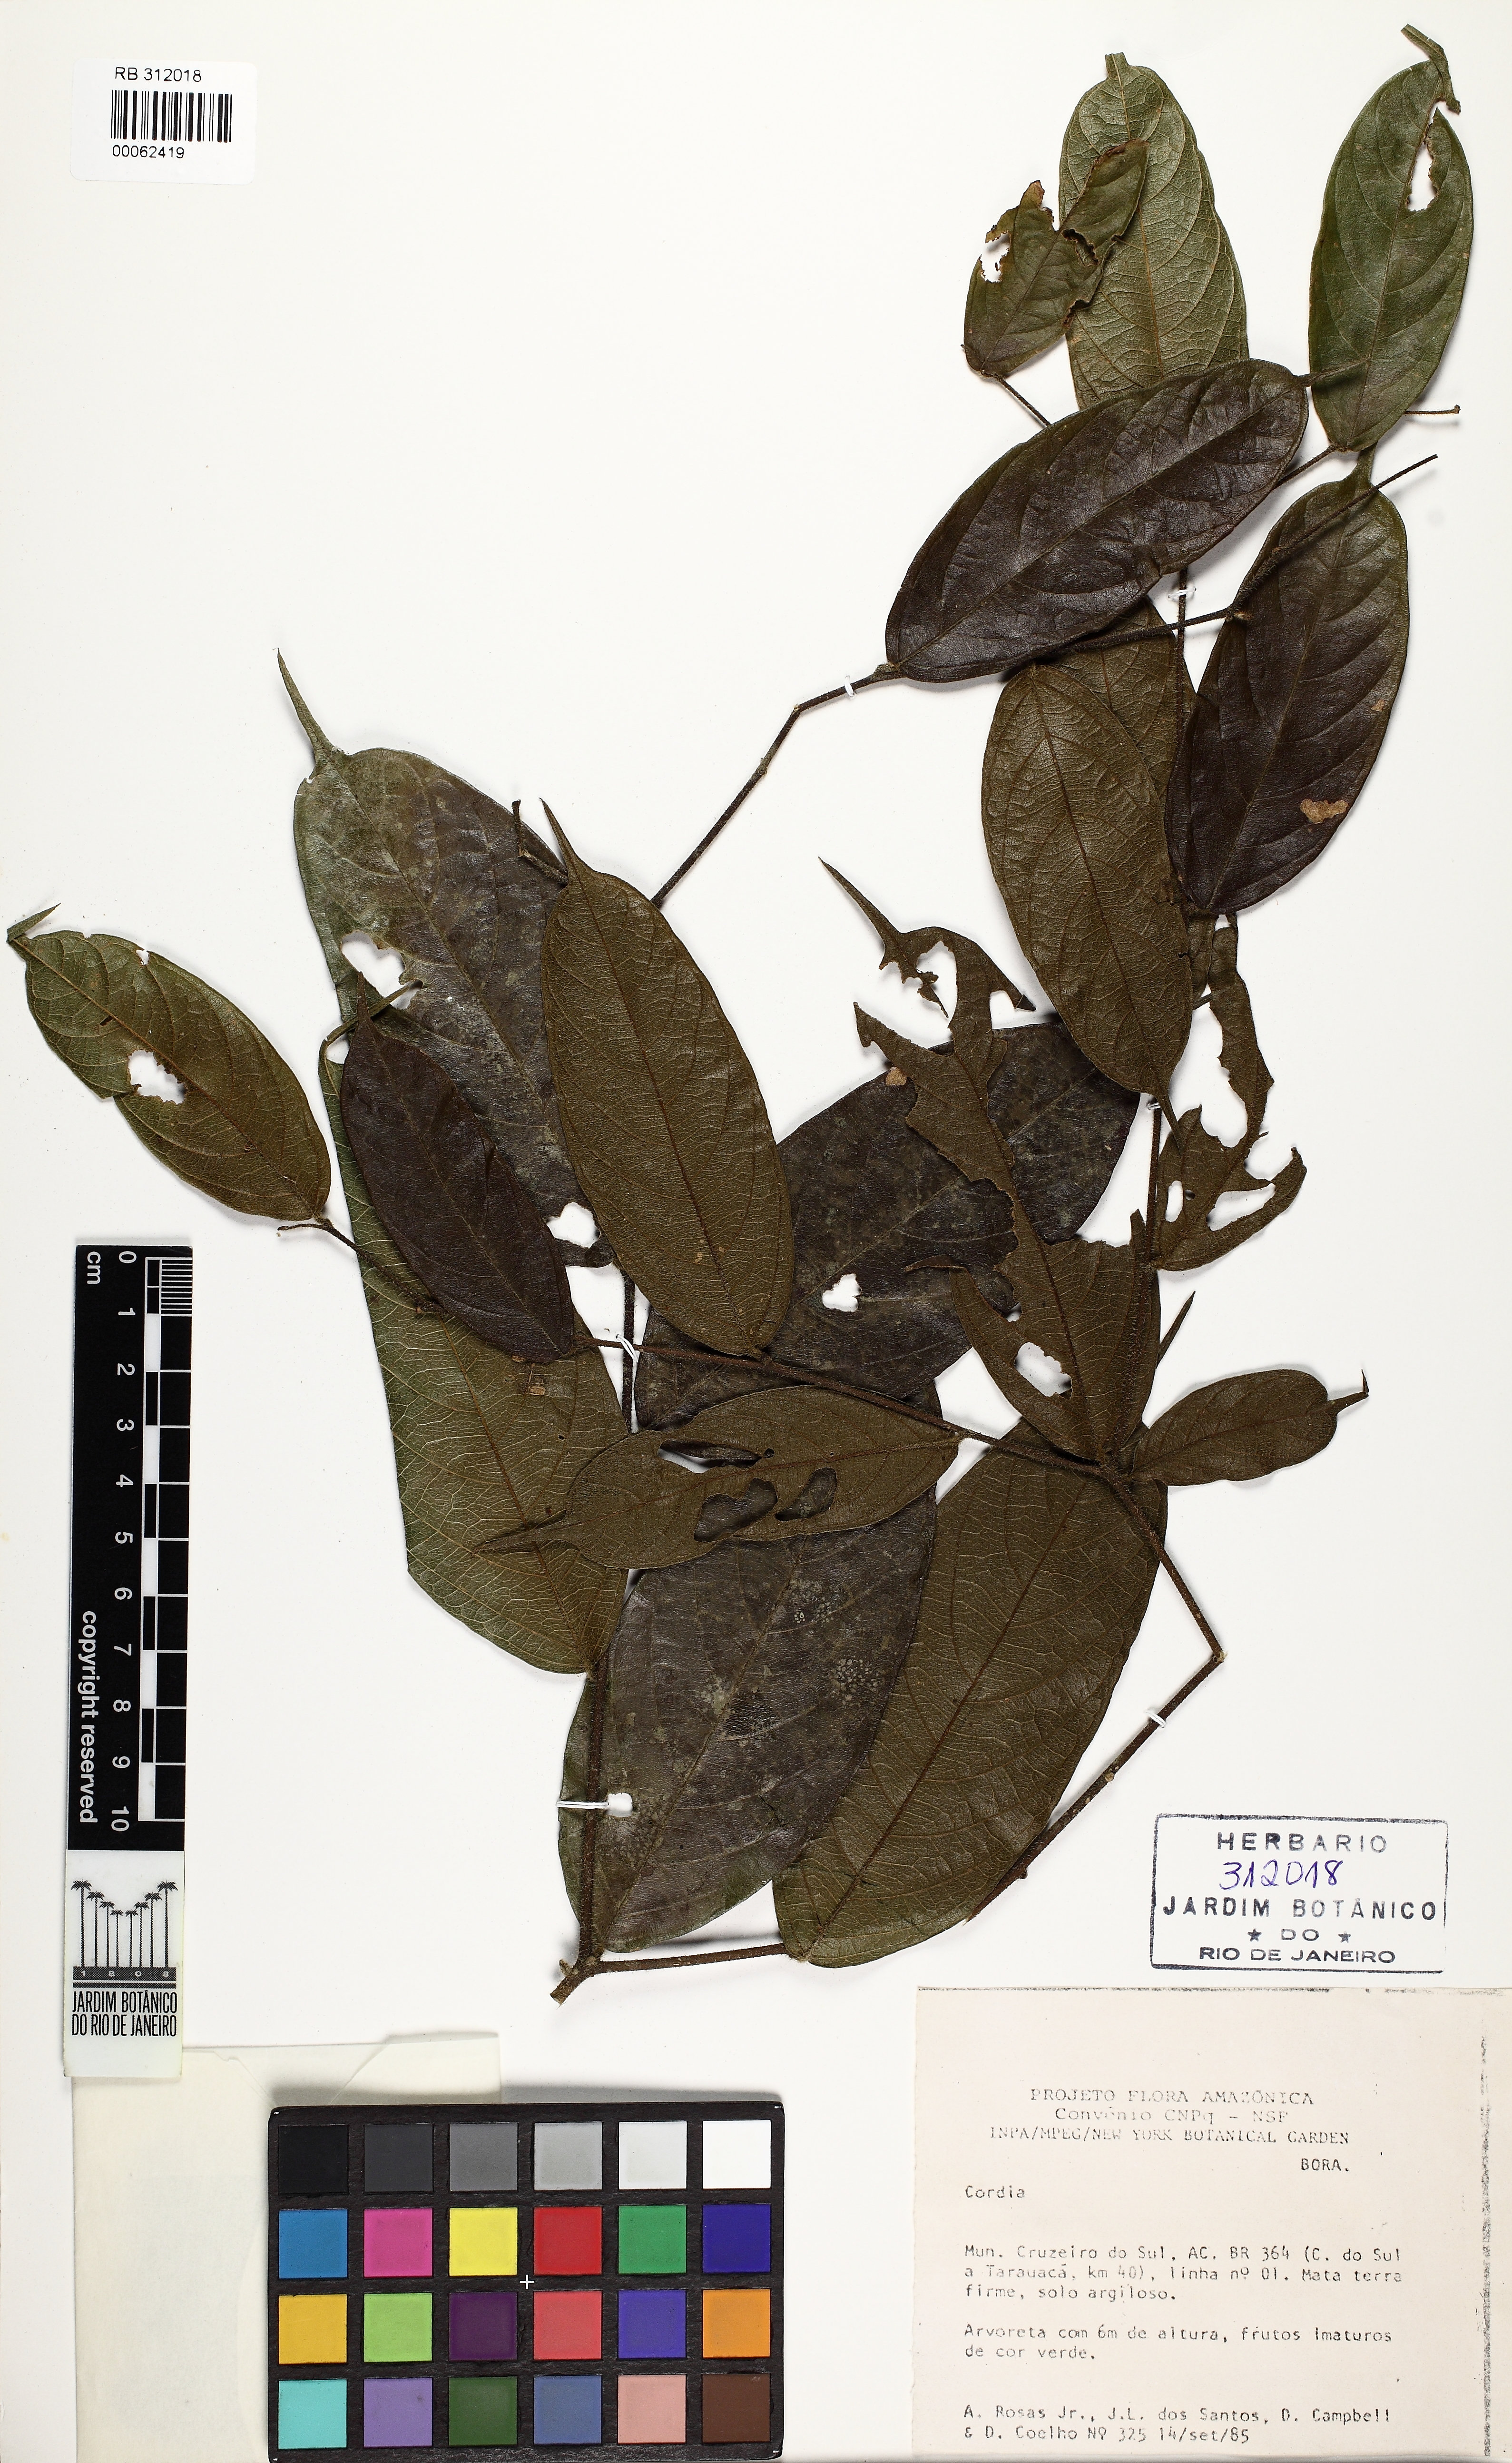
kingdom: Plantae
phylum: Tracheophyta
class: Magnoliopsida
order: Boraginales
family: Cordiaceae
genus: Cordia
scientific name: Cordia
